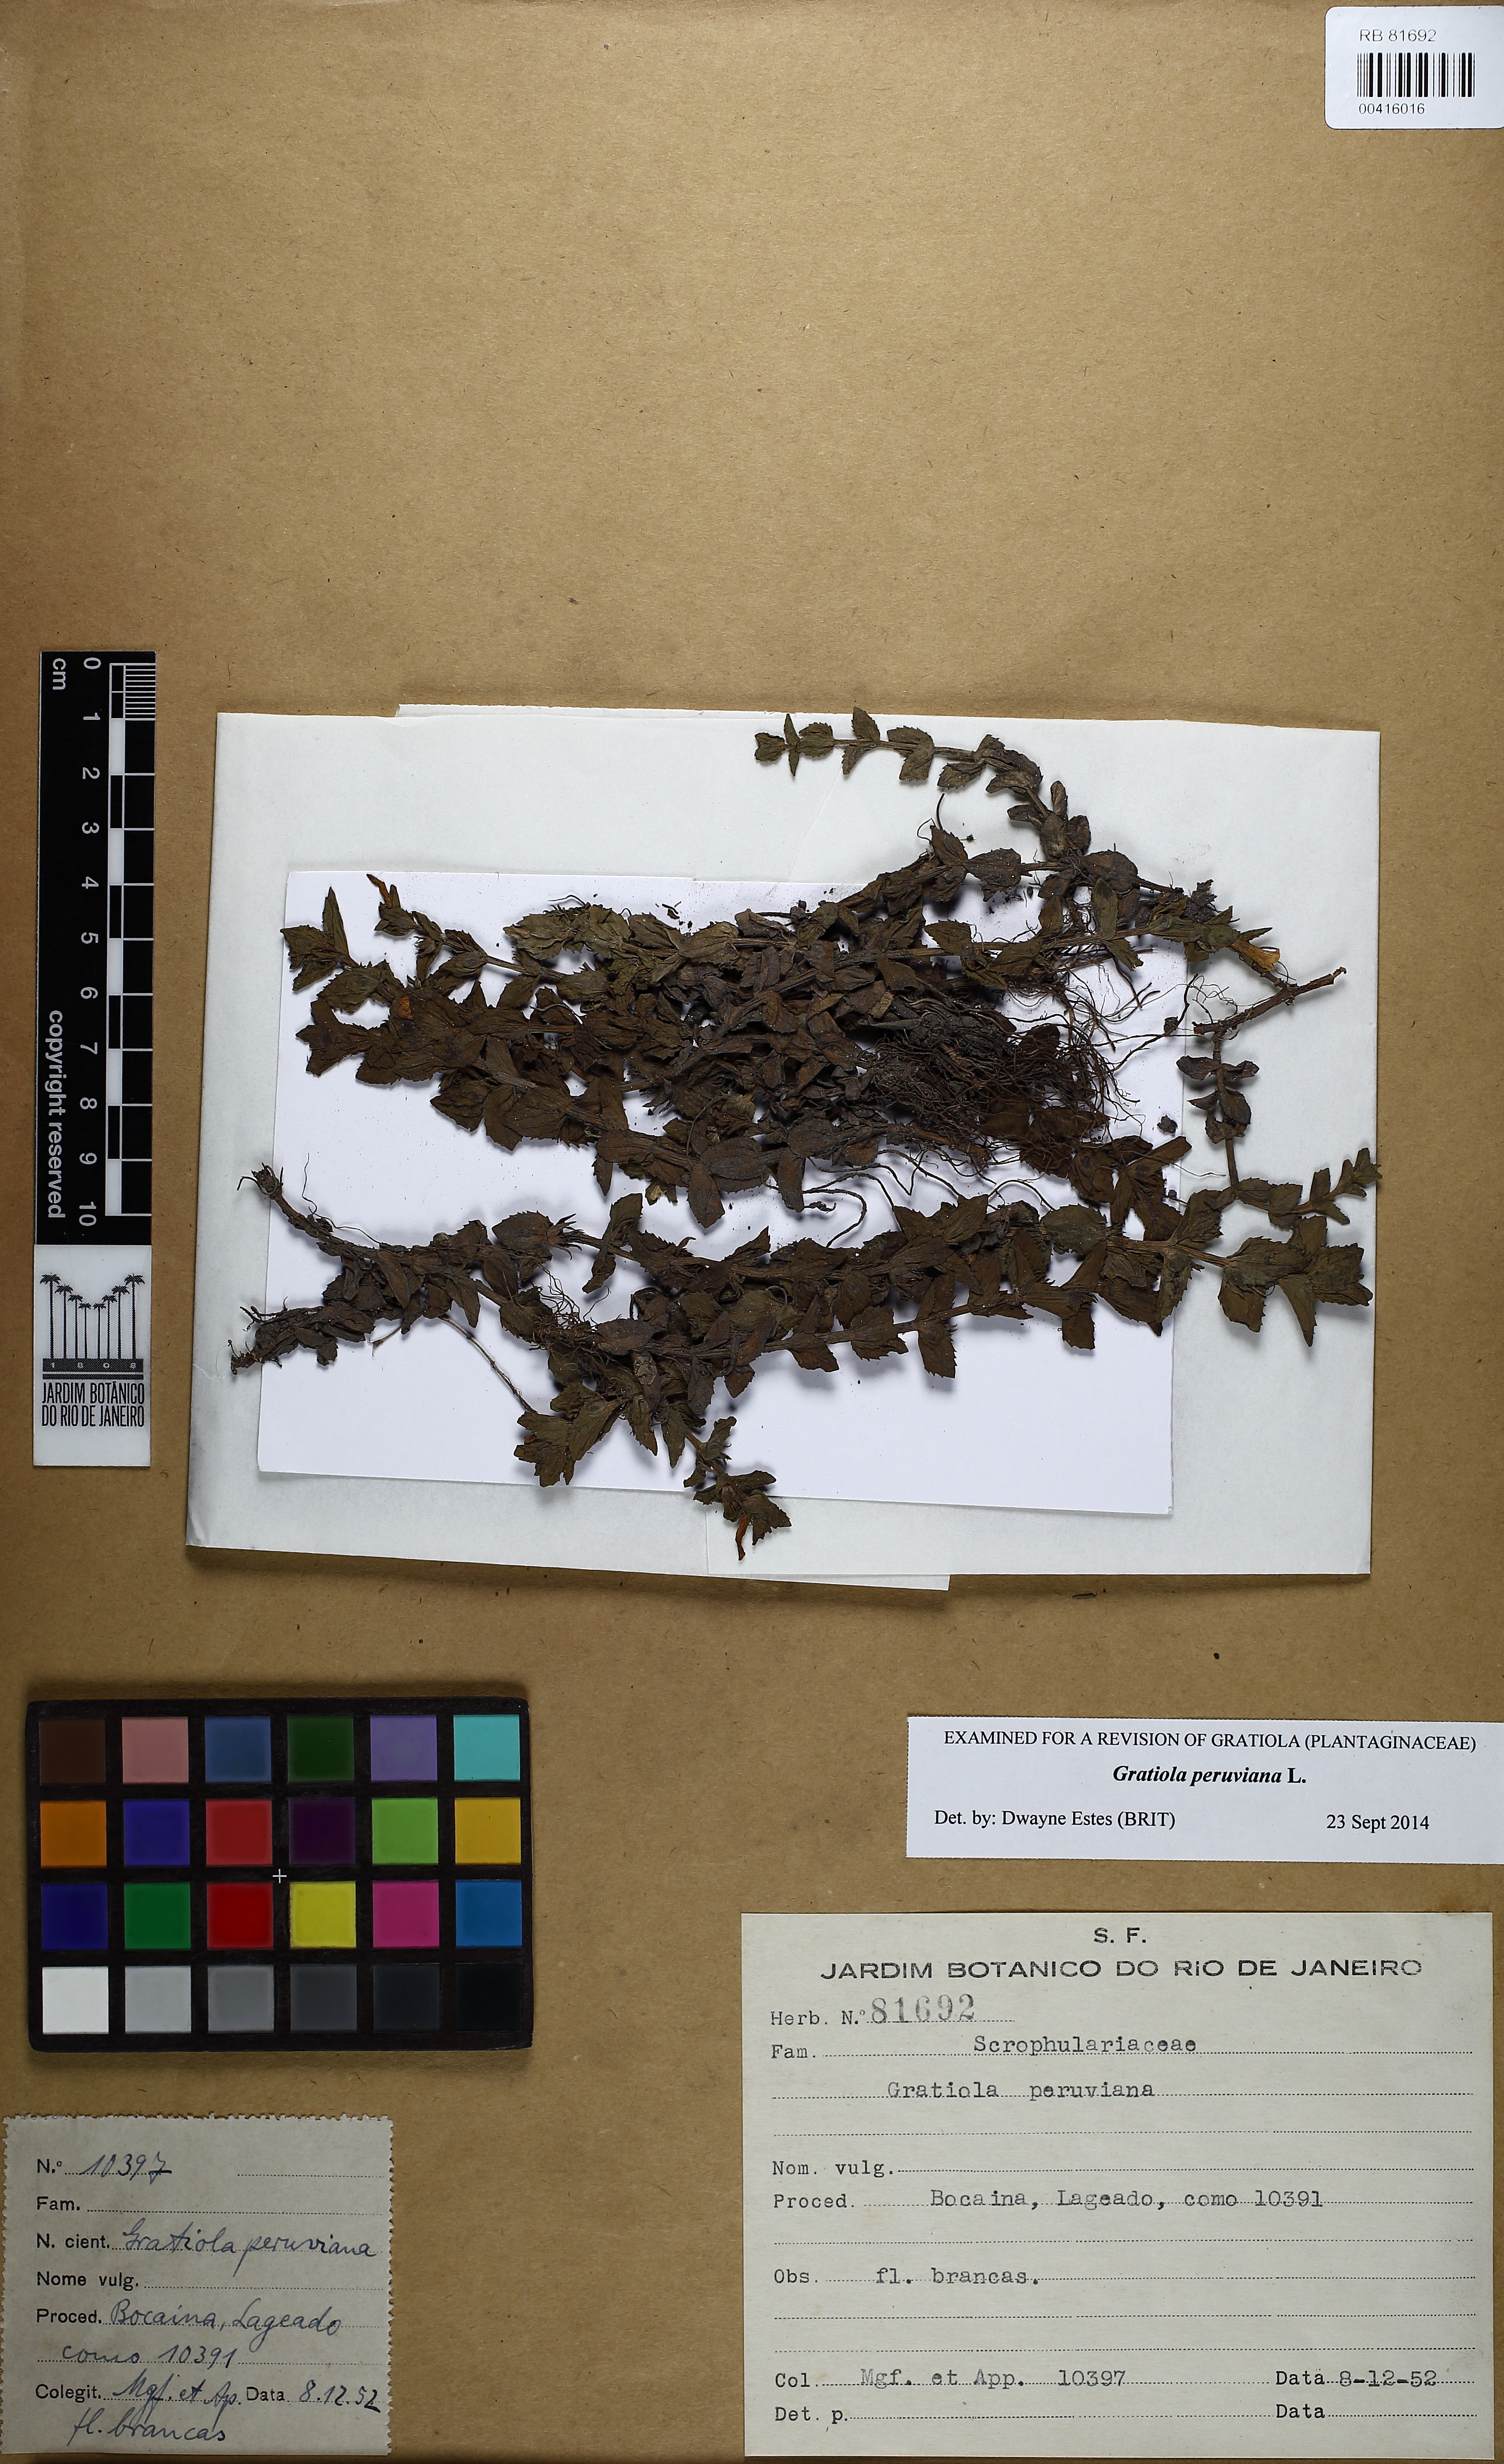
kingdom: Plantae
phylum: Tracheophyta
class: Magnoliopsida
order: Lamiales
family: Plantaginaceae
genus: Gratiola
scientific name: Gratiola peruviana
